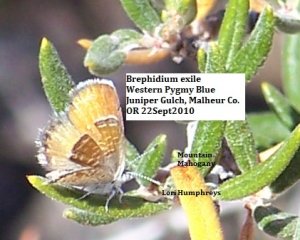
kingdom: Animalia
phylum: Arthropoda
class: Insecta
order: Lepidoptera
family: Lycaenidae
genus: Brephidium
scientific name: Brephidium exilis
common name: Western Pygmy-Blue
